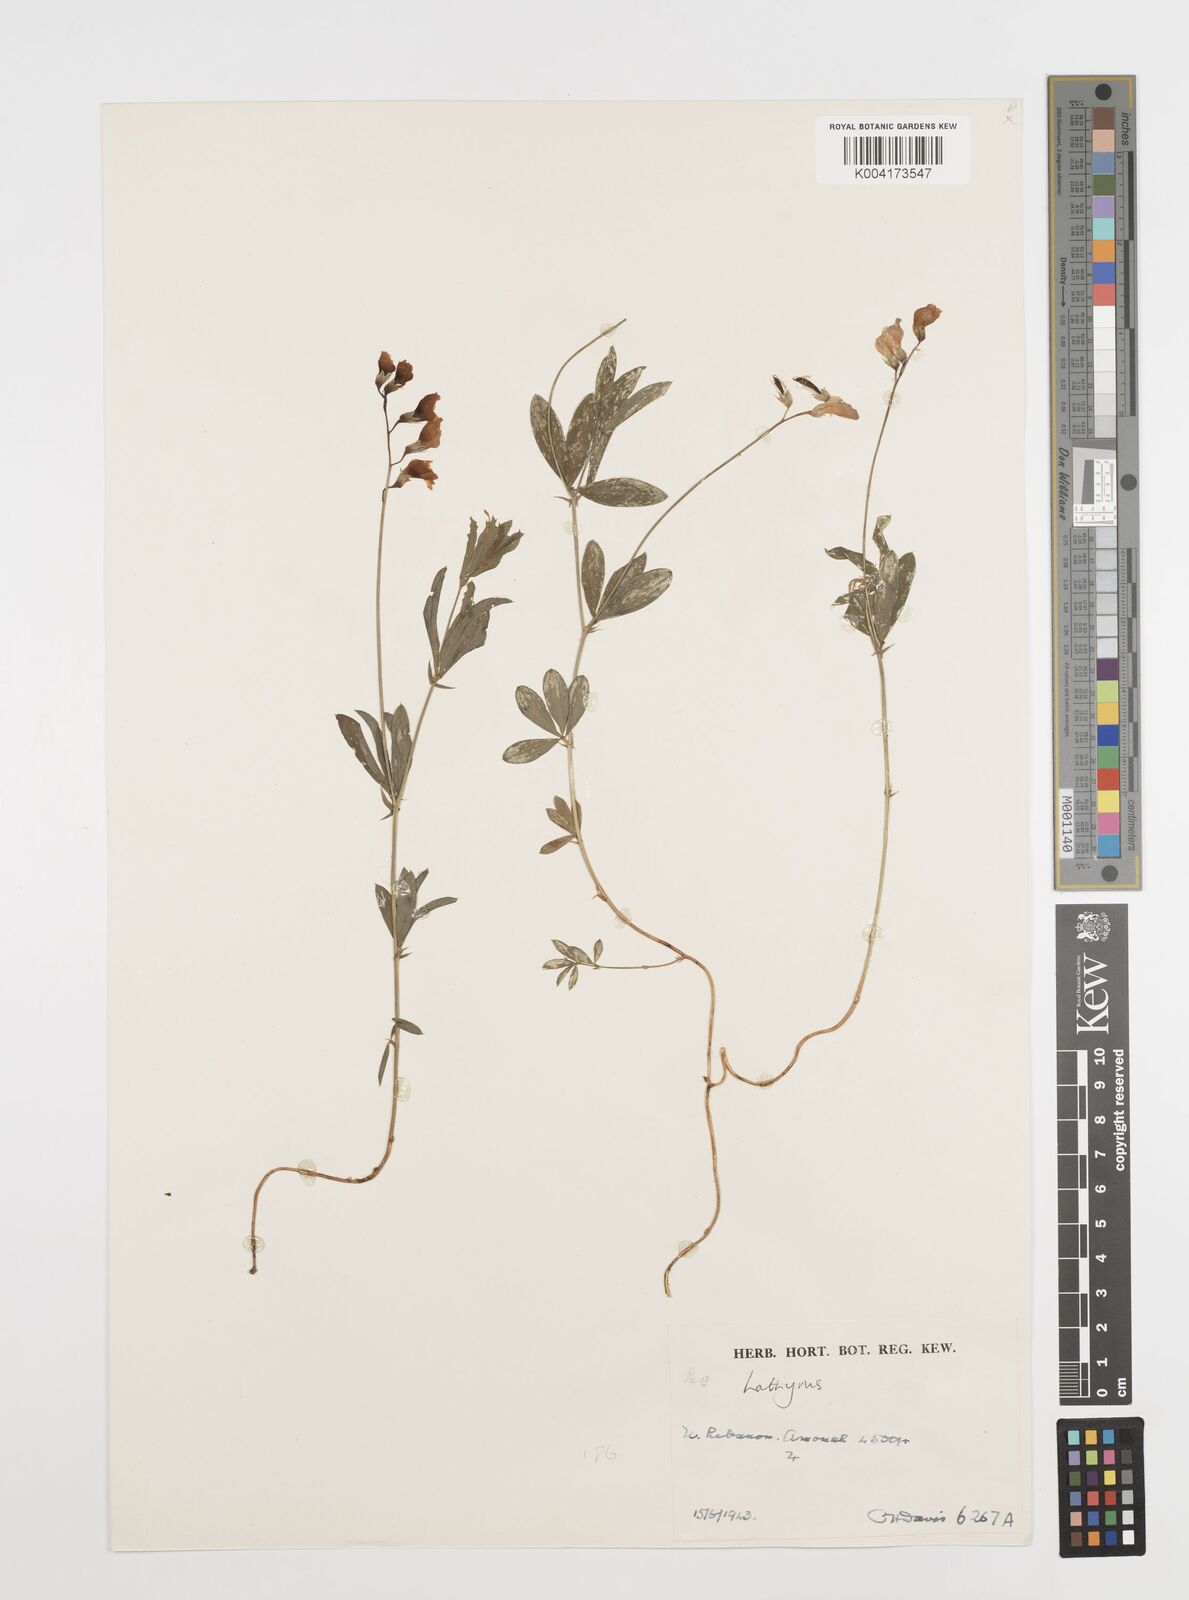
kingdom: Plantae
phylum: Tracheophyta
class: Magnoliopsida
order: Fabales
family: Fabaceae
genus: Lathyrus
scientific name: Lathyrus
